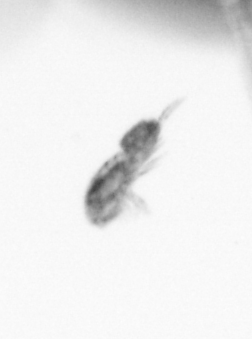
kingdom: Animalia
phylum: Arthropoda
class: Copepoda
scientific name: Copepoda
